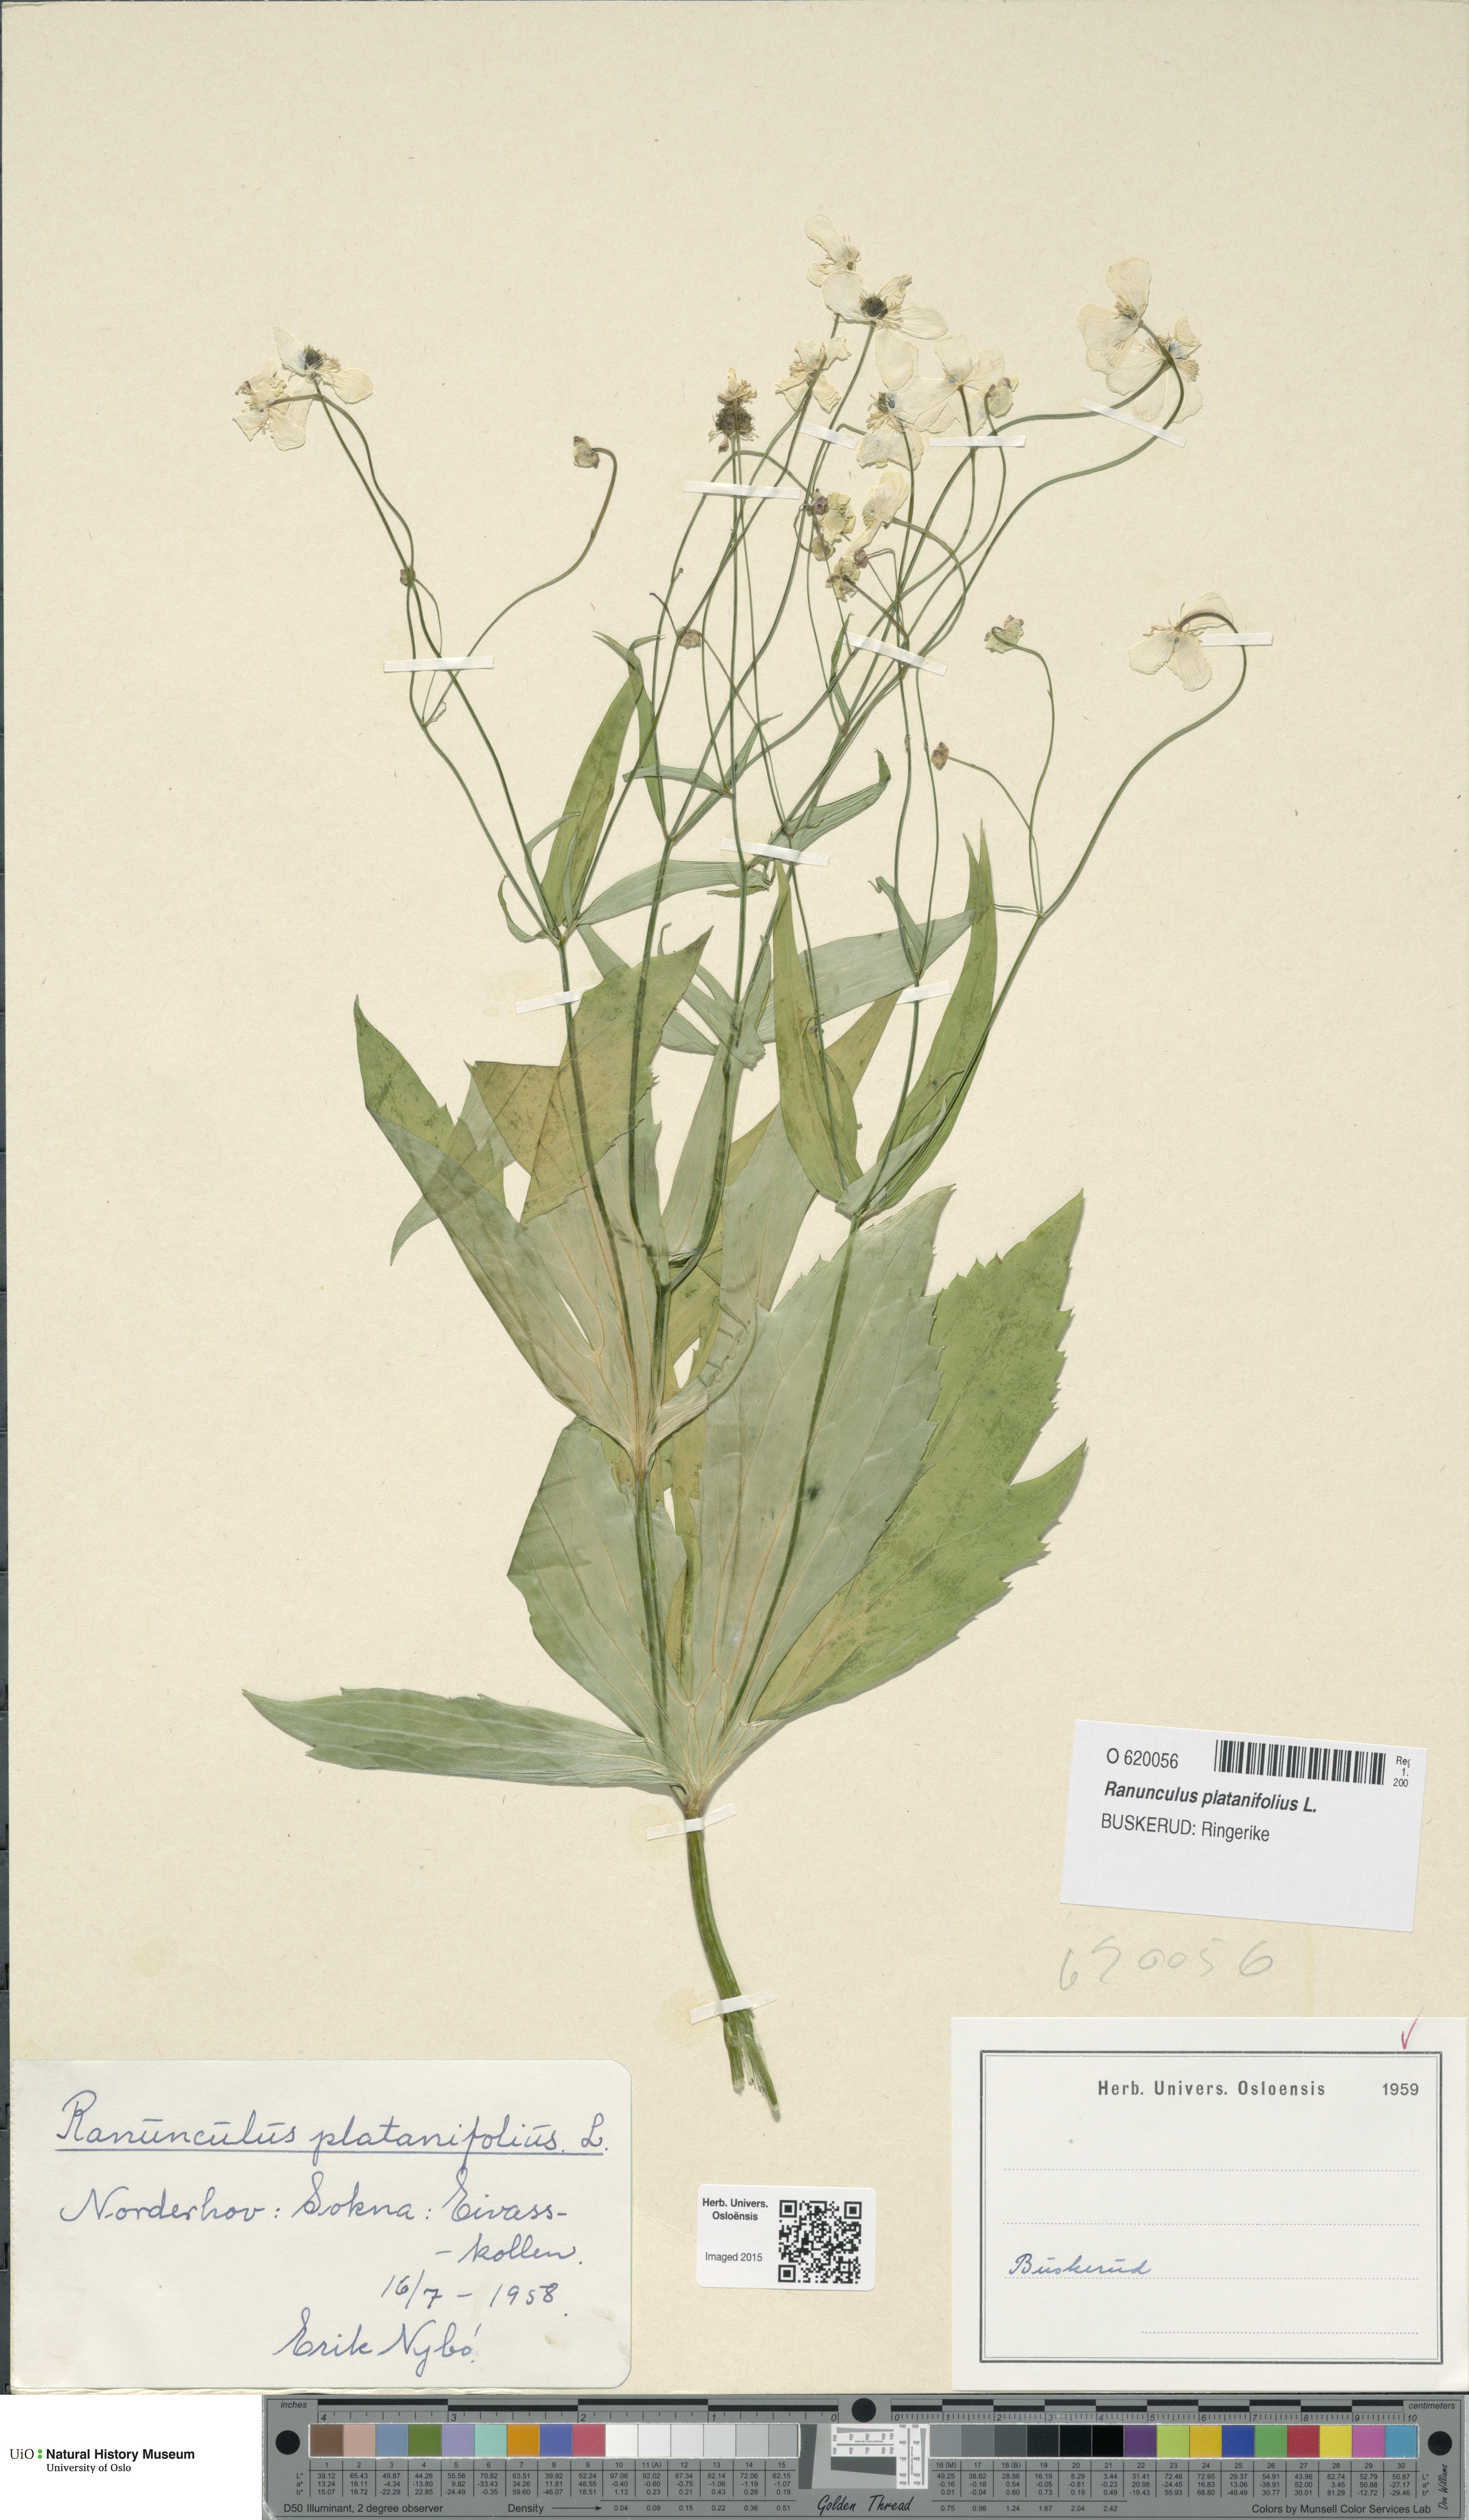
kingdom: Plantae
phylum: Tracheophyta
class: Magnoliopsida
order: Ranunculales
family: Ranunculaceae
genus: Ranunculus
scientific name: Ranunculus platanifolius
